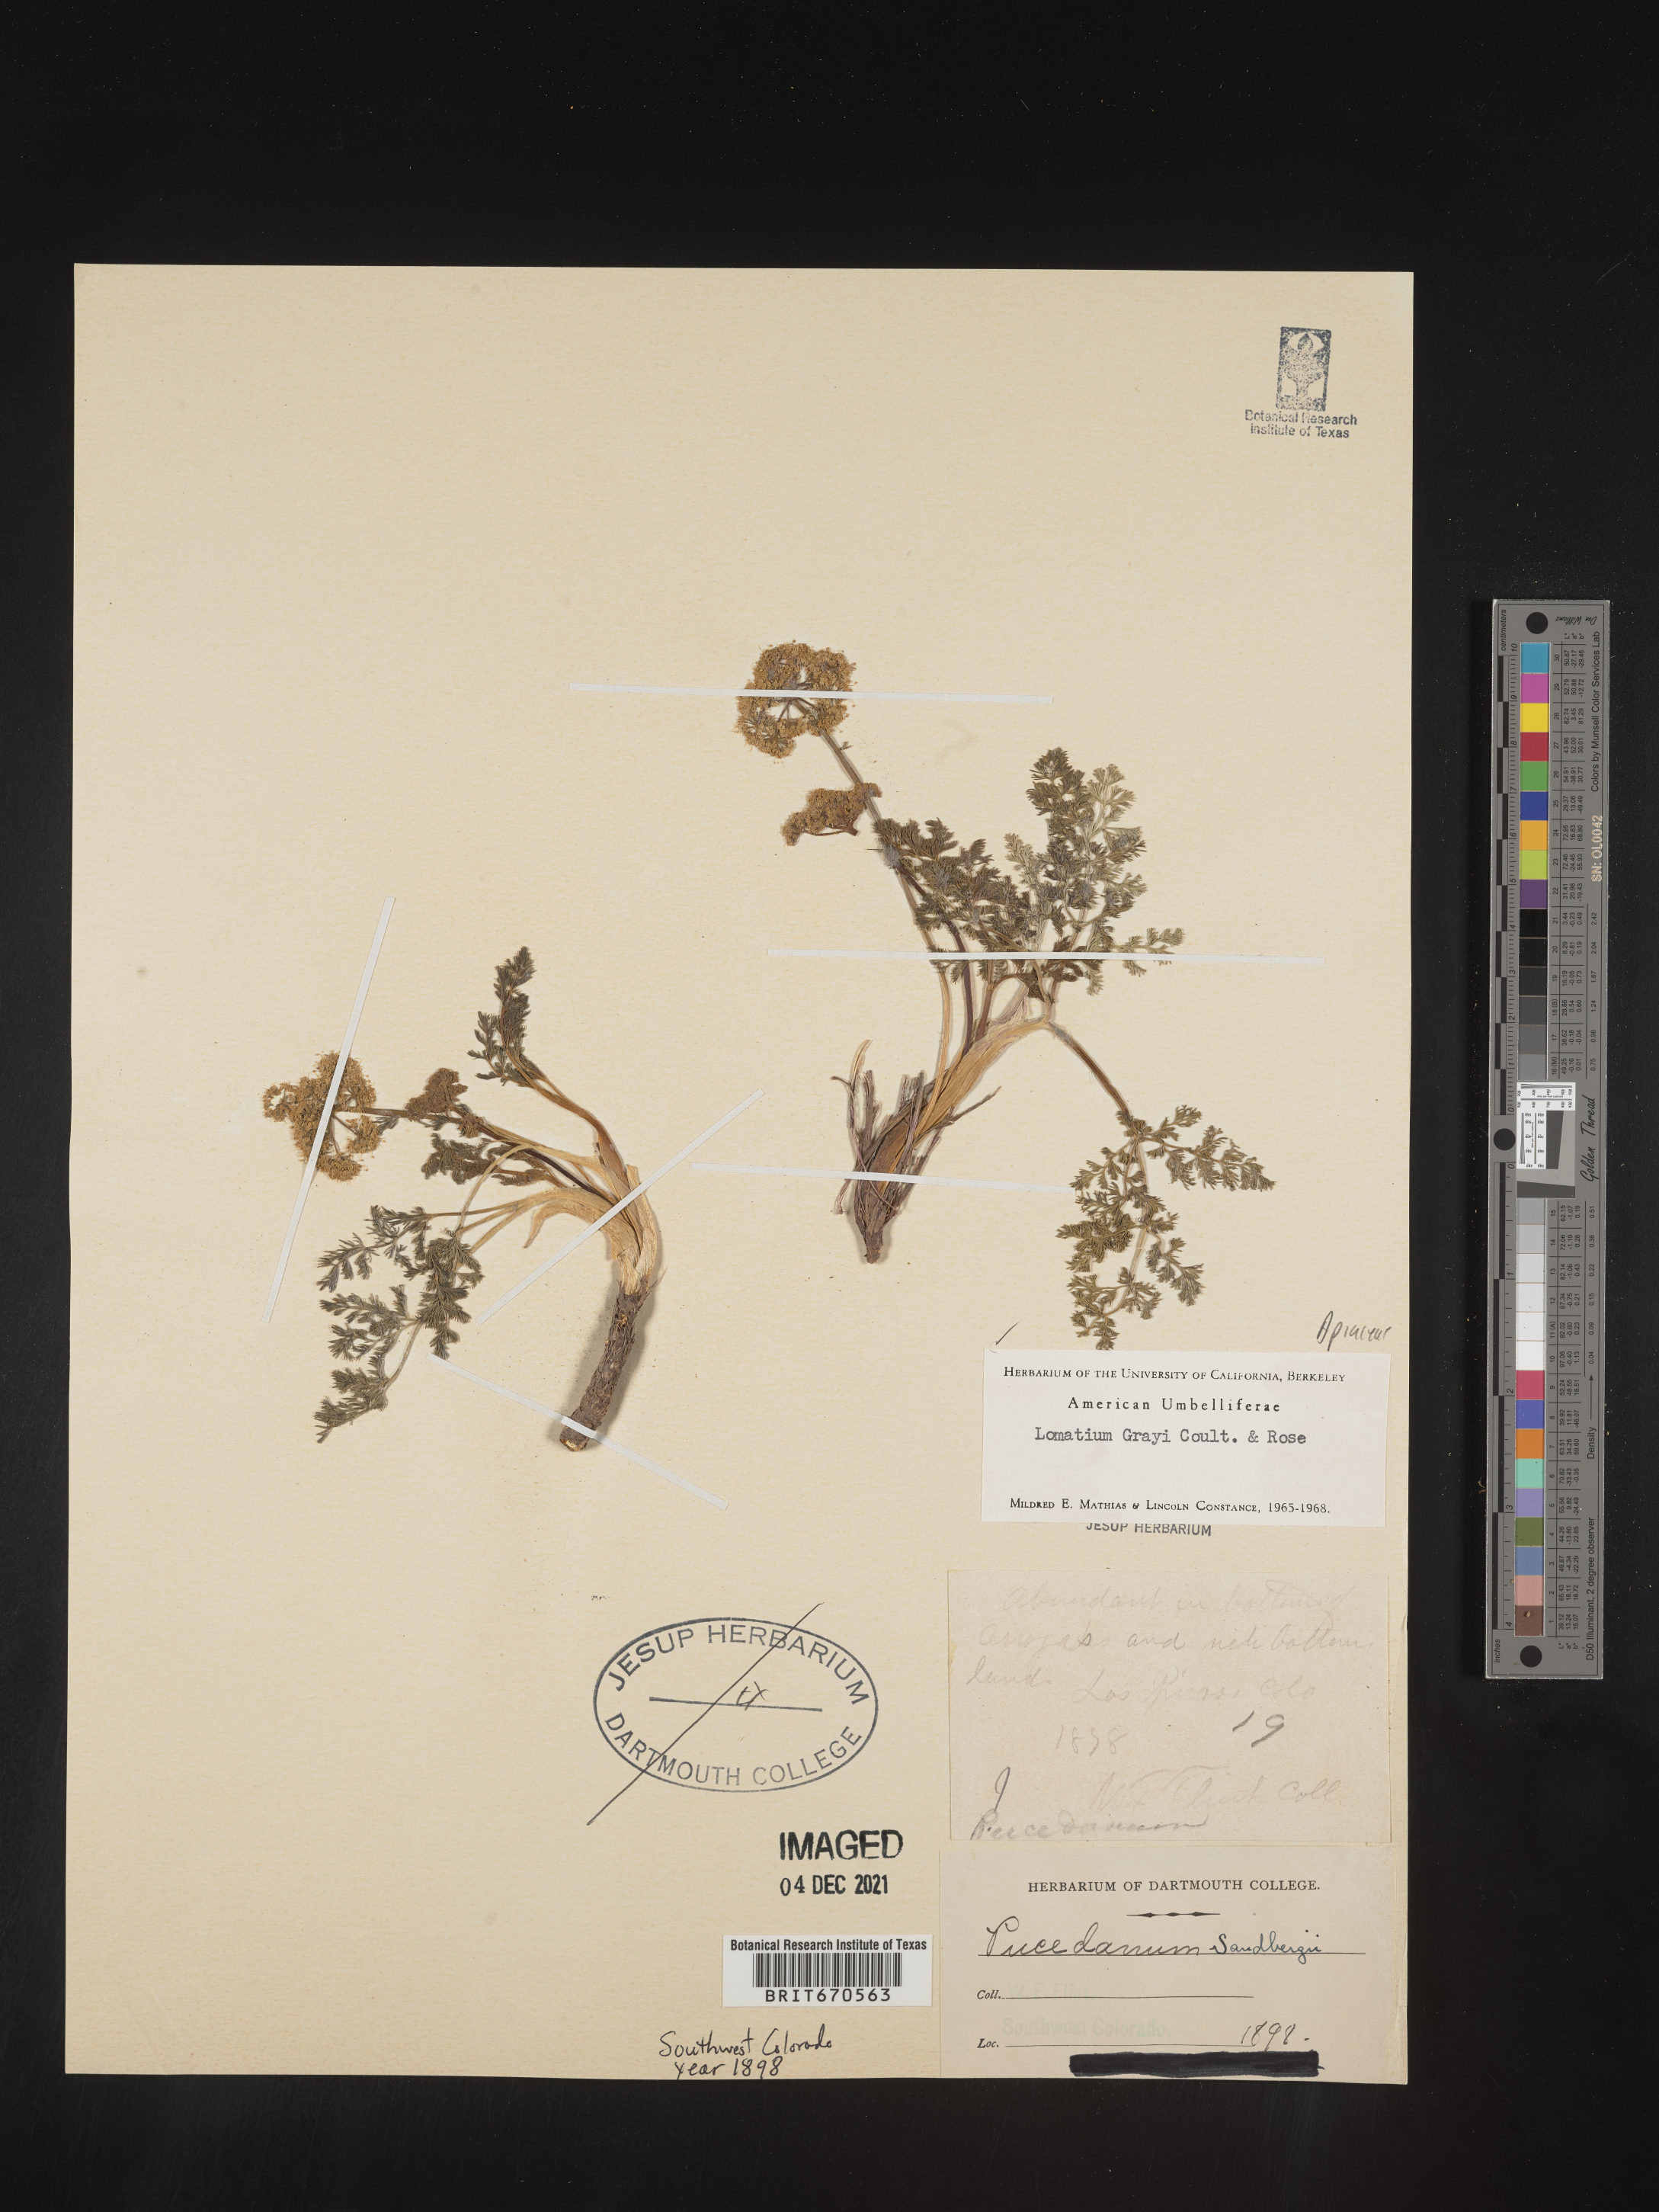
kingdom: Plantae
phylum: Tracheophyta
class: Magnoliopsida
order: Apiales
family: Apiaceae
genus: Lomatium
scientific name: Lomatium grayi
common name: Milfoil lomatium
